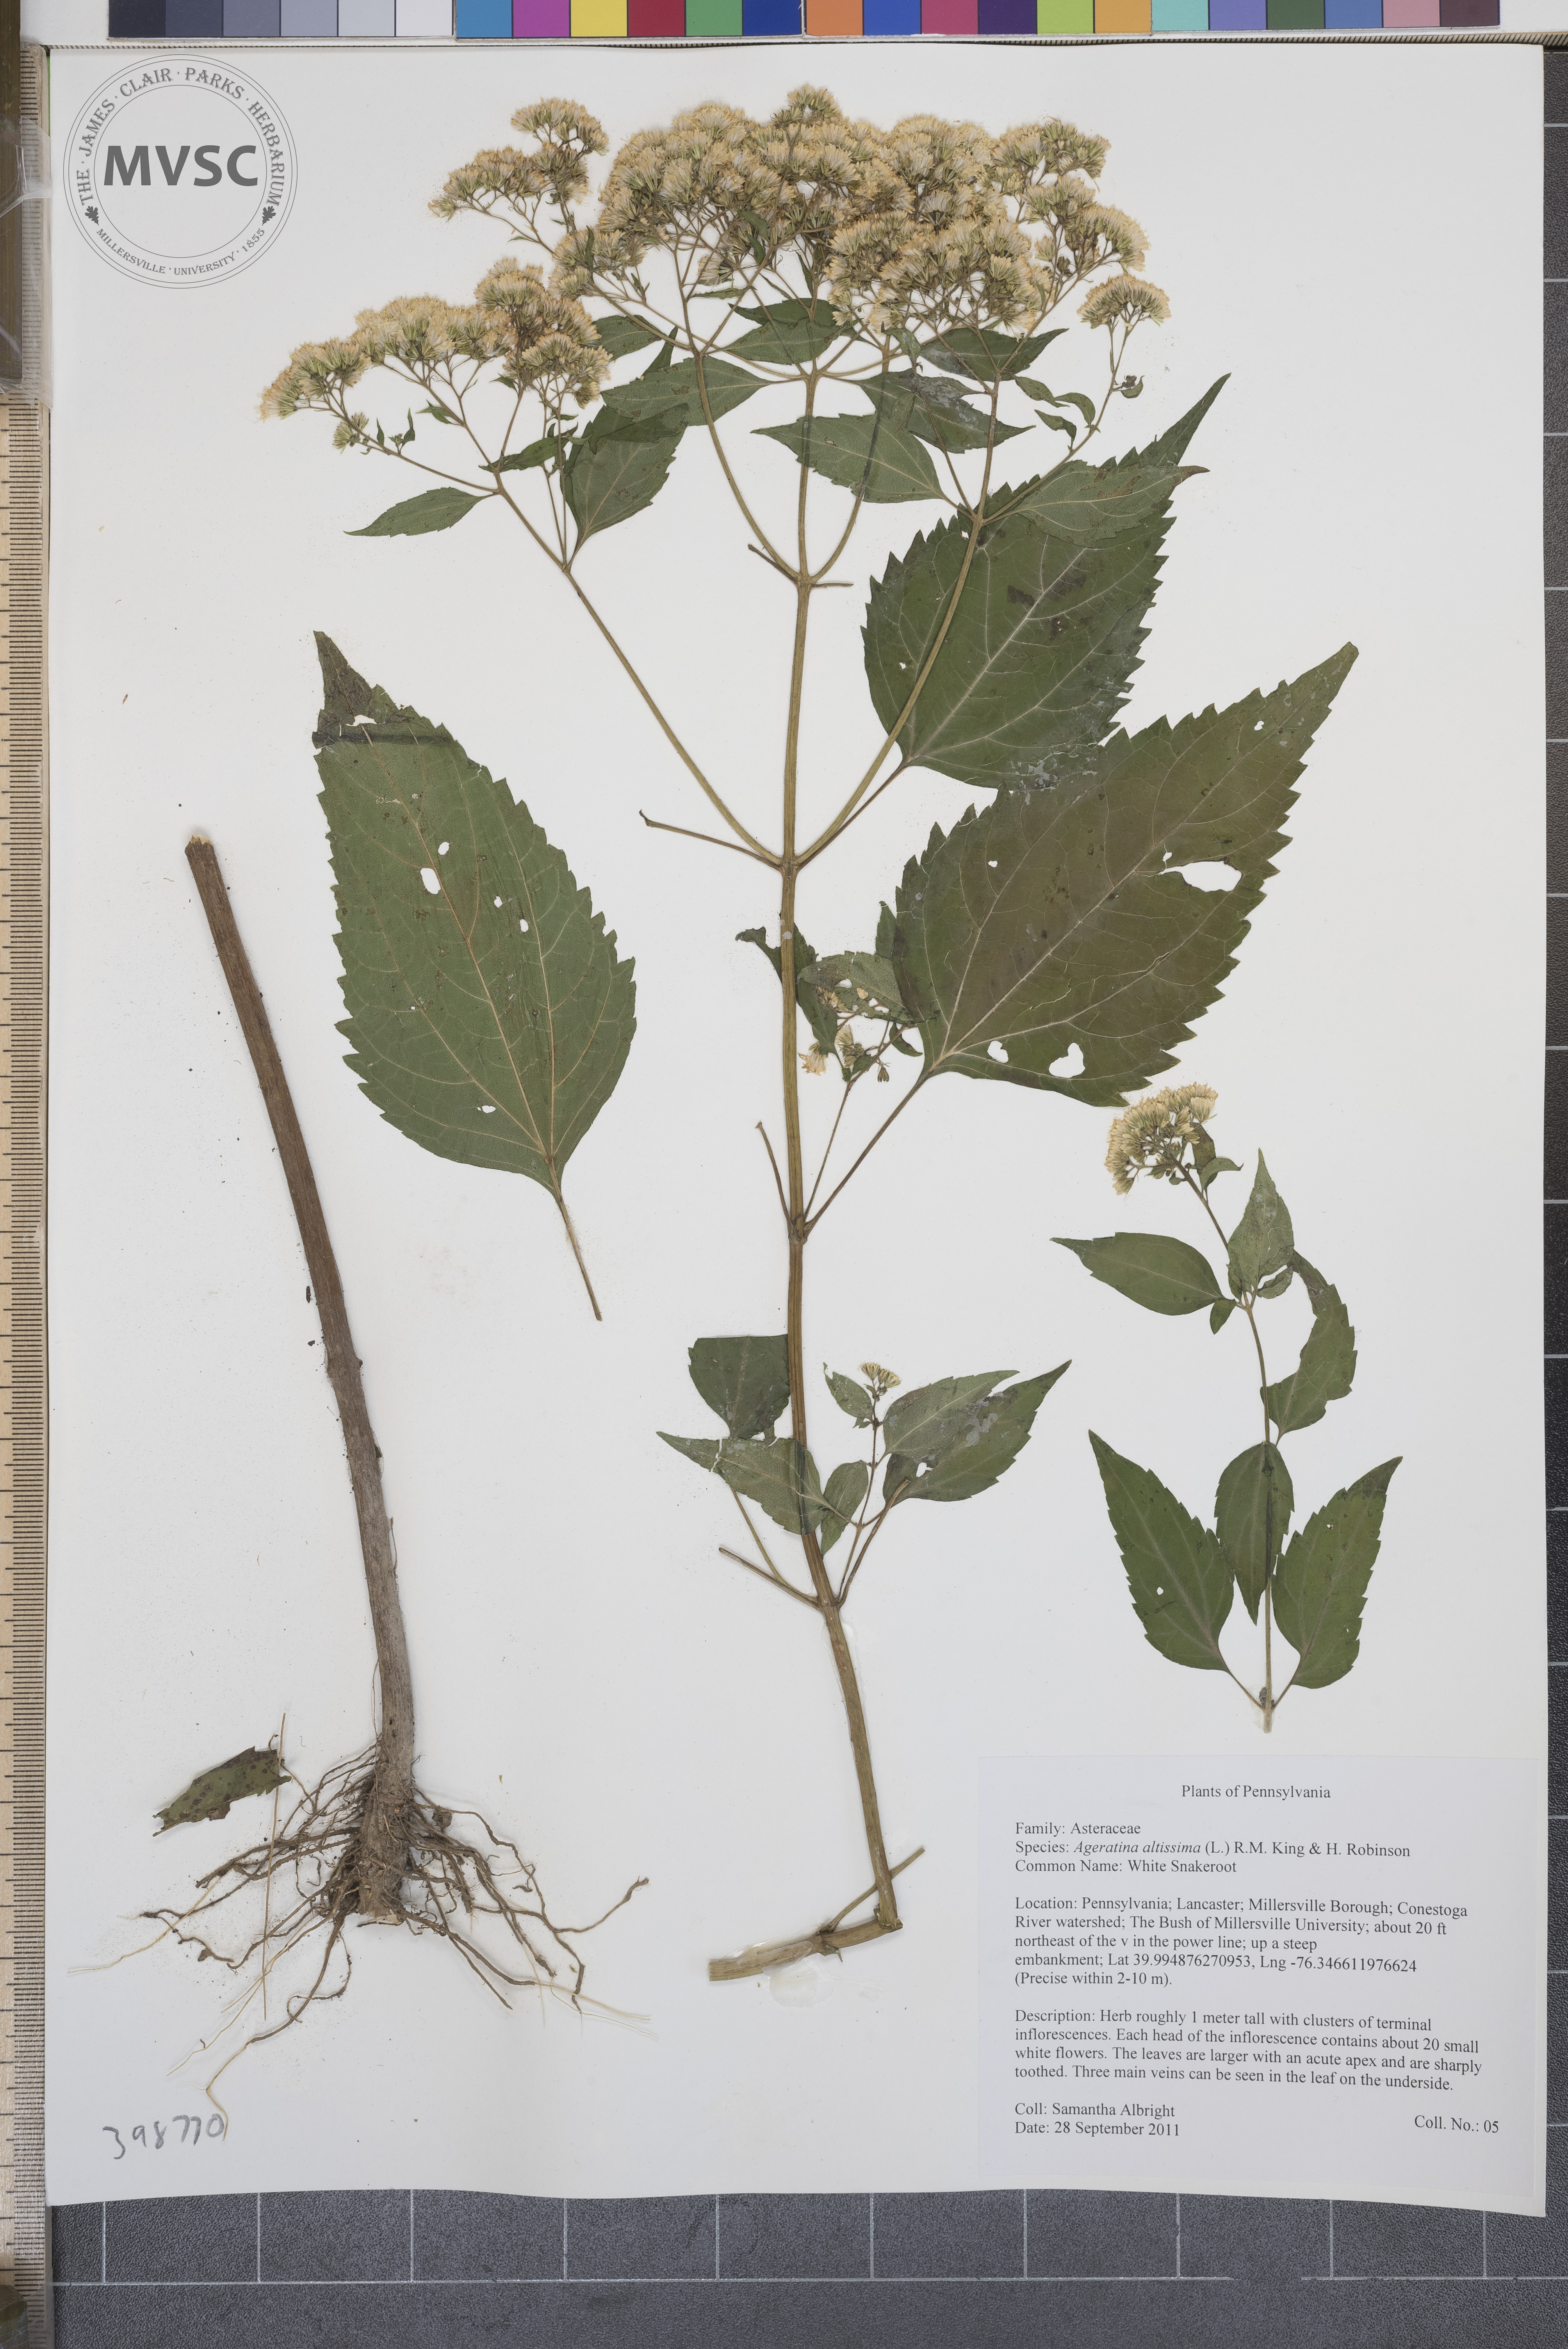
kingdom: Plantae
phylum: Tracheophyta
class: Magnoliopsida
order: Asterales
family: Asteraceae
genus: Ageratina
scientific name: Ageratina altissima
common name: White snakeroot
